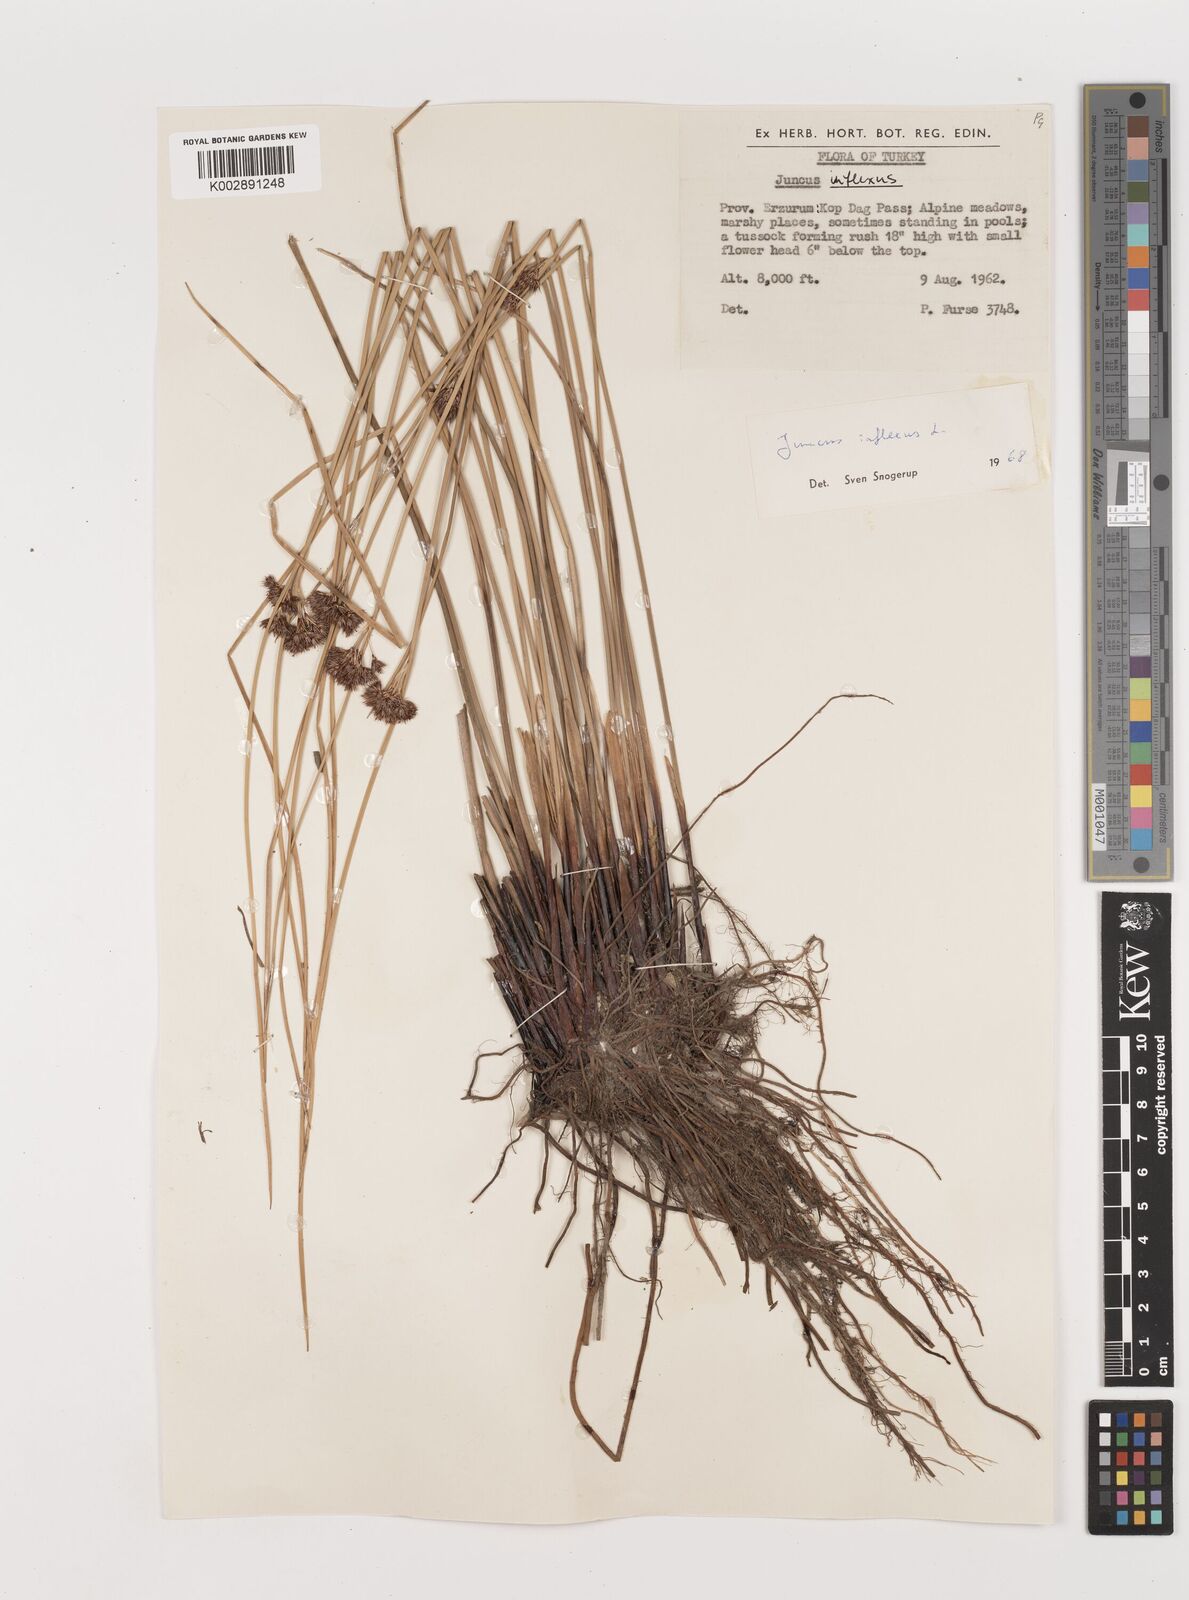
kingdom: Plantae
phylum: Tracheophyta
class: Liliopsida
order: Poales
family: Juncaceae
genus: Juncus
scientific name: Juncus inflexus
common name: Hard rush
